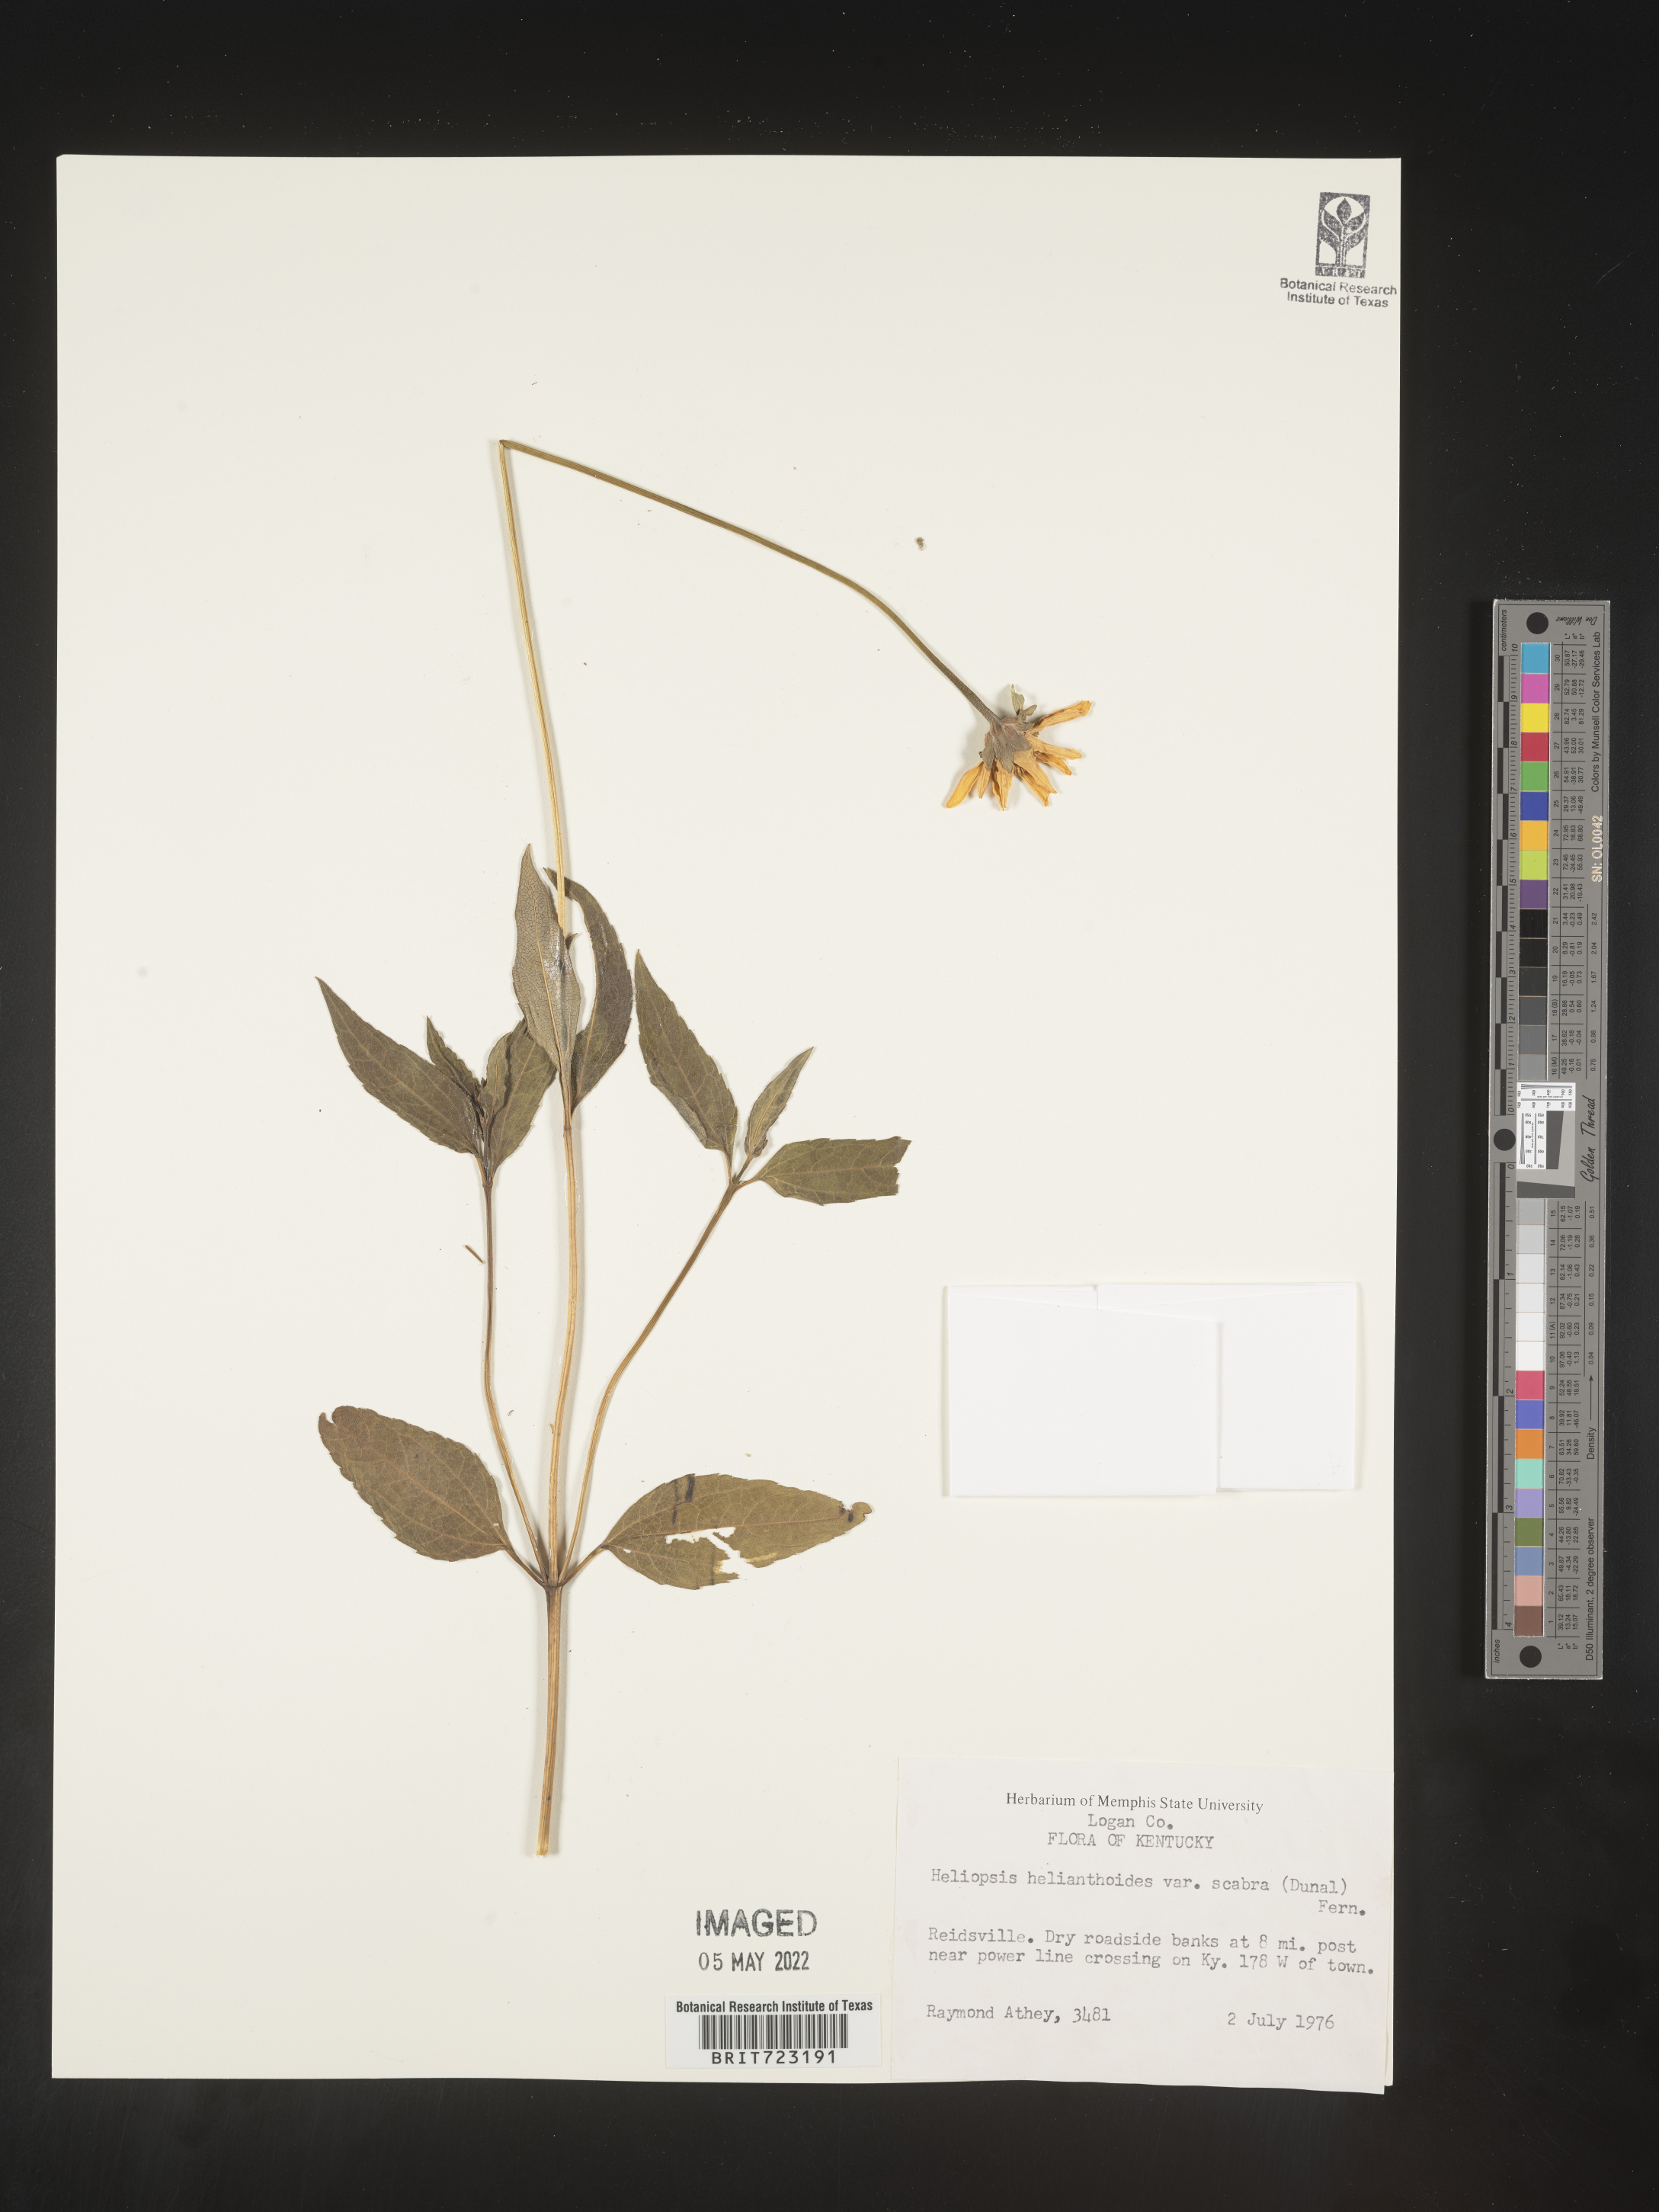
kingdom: Plantae
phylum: Tracheophyta
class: Magnoliopsida
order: Asterales
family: Asteraceae
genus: Heliopsis
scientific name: Heliopsis helianthoides
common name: False sunflower
